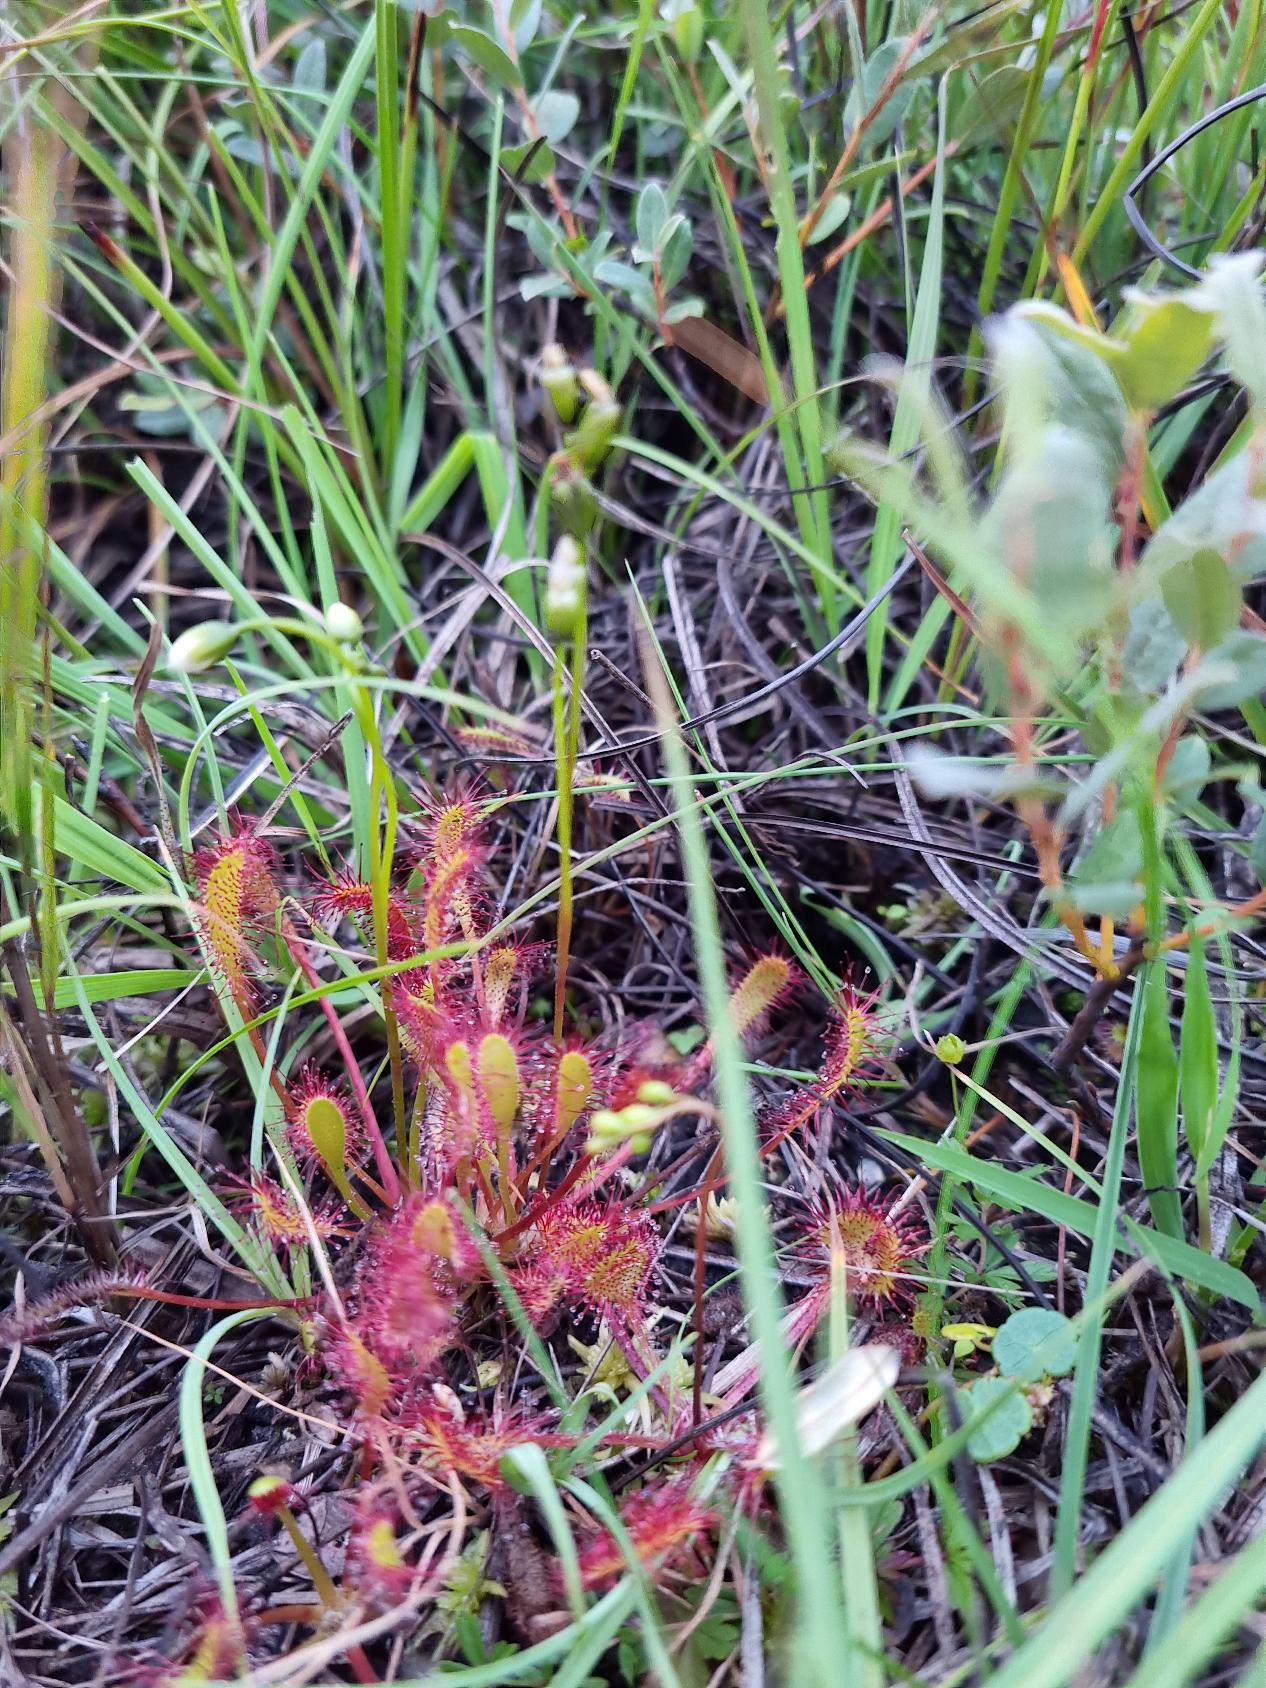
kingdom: Plantae
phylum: Tracheophyta
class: Magnoliopsida
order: Caryophyllales
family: Droseraceae
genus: Drosera
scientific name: Drosera anglica
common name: Langbladet soldug
